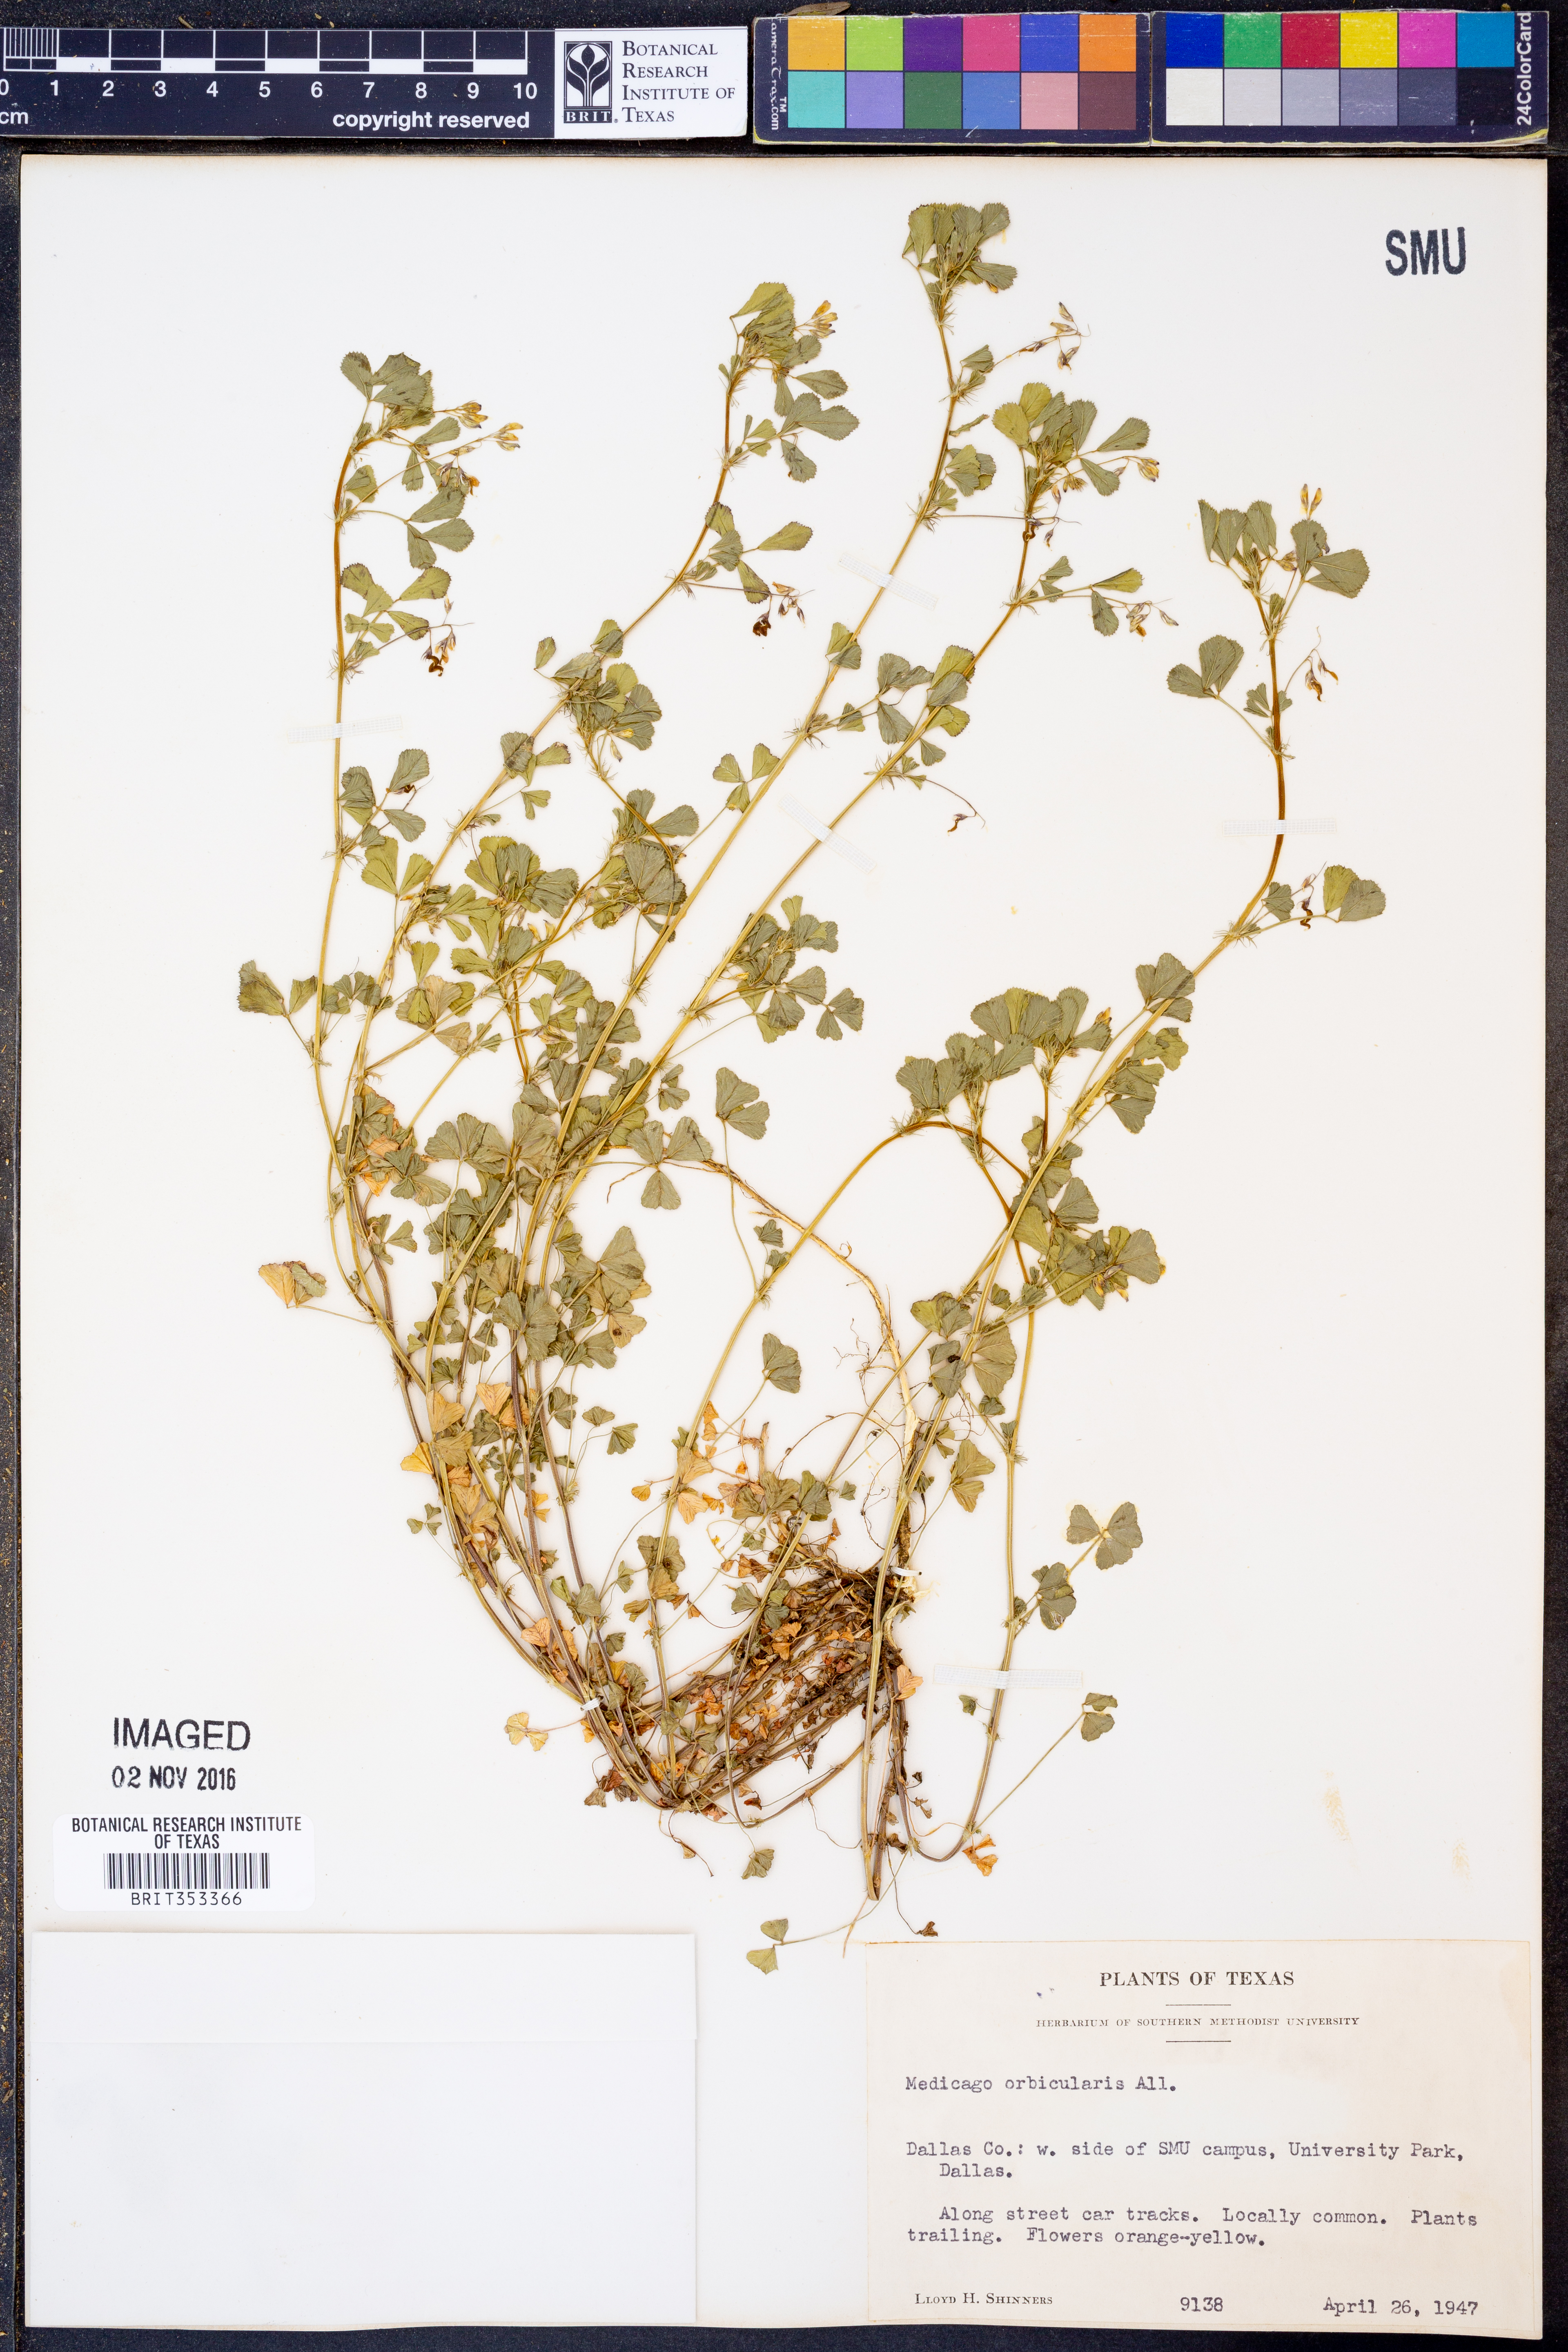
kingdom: Plantae
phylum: Tracheophyta
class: Magnoliopsida
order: Fabales
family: Fabaceae
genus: Medicago
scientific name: Medicago orbicularis
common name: Button medick
